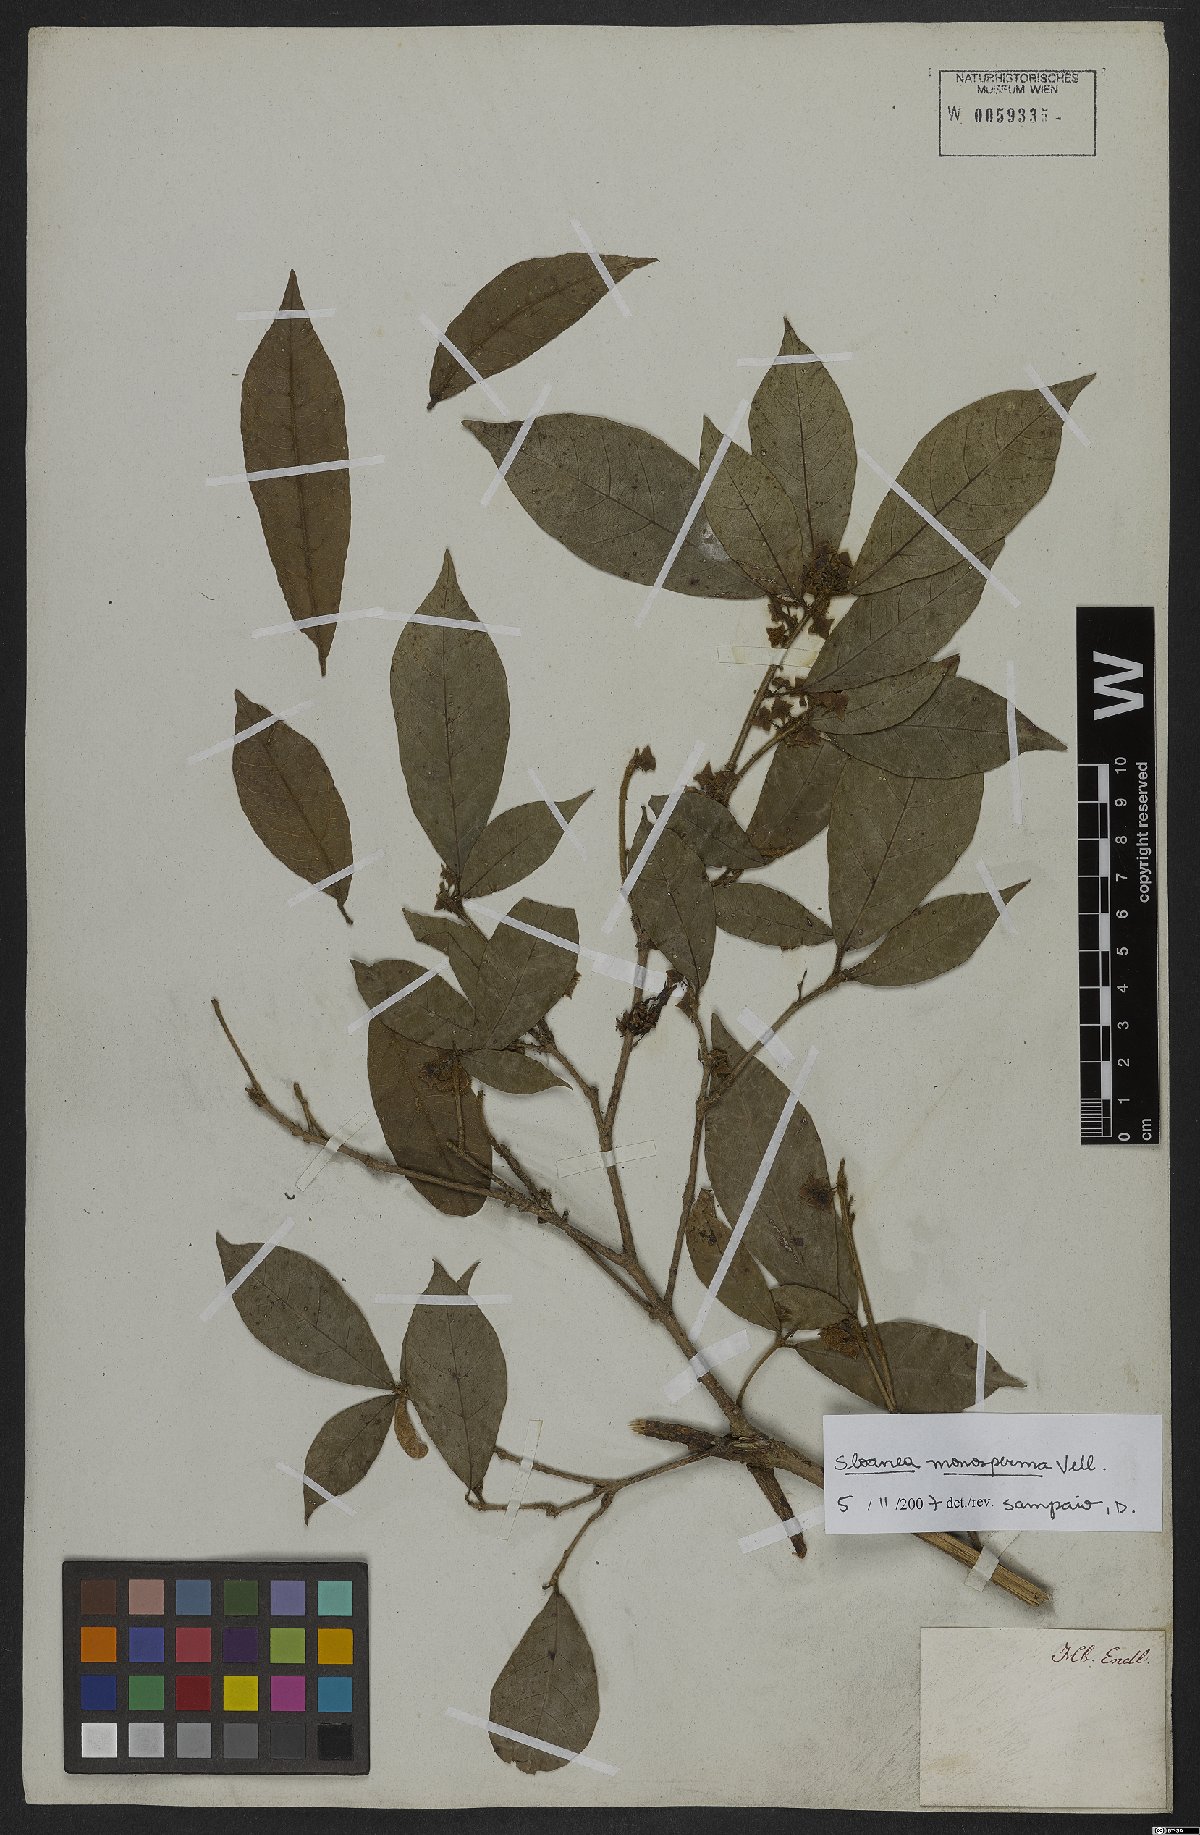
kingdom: Plantae
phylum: Tracheophyta
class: Magnoliopsida
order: Oxalidales
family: Elaeocarpaceae
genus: Sloanea
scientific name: Sloanea hirsuta
